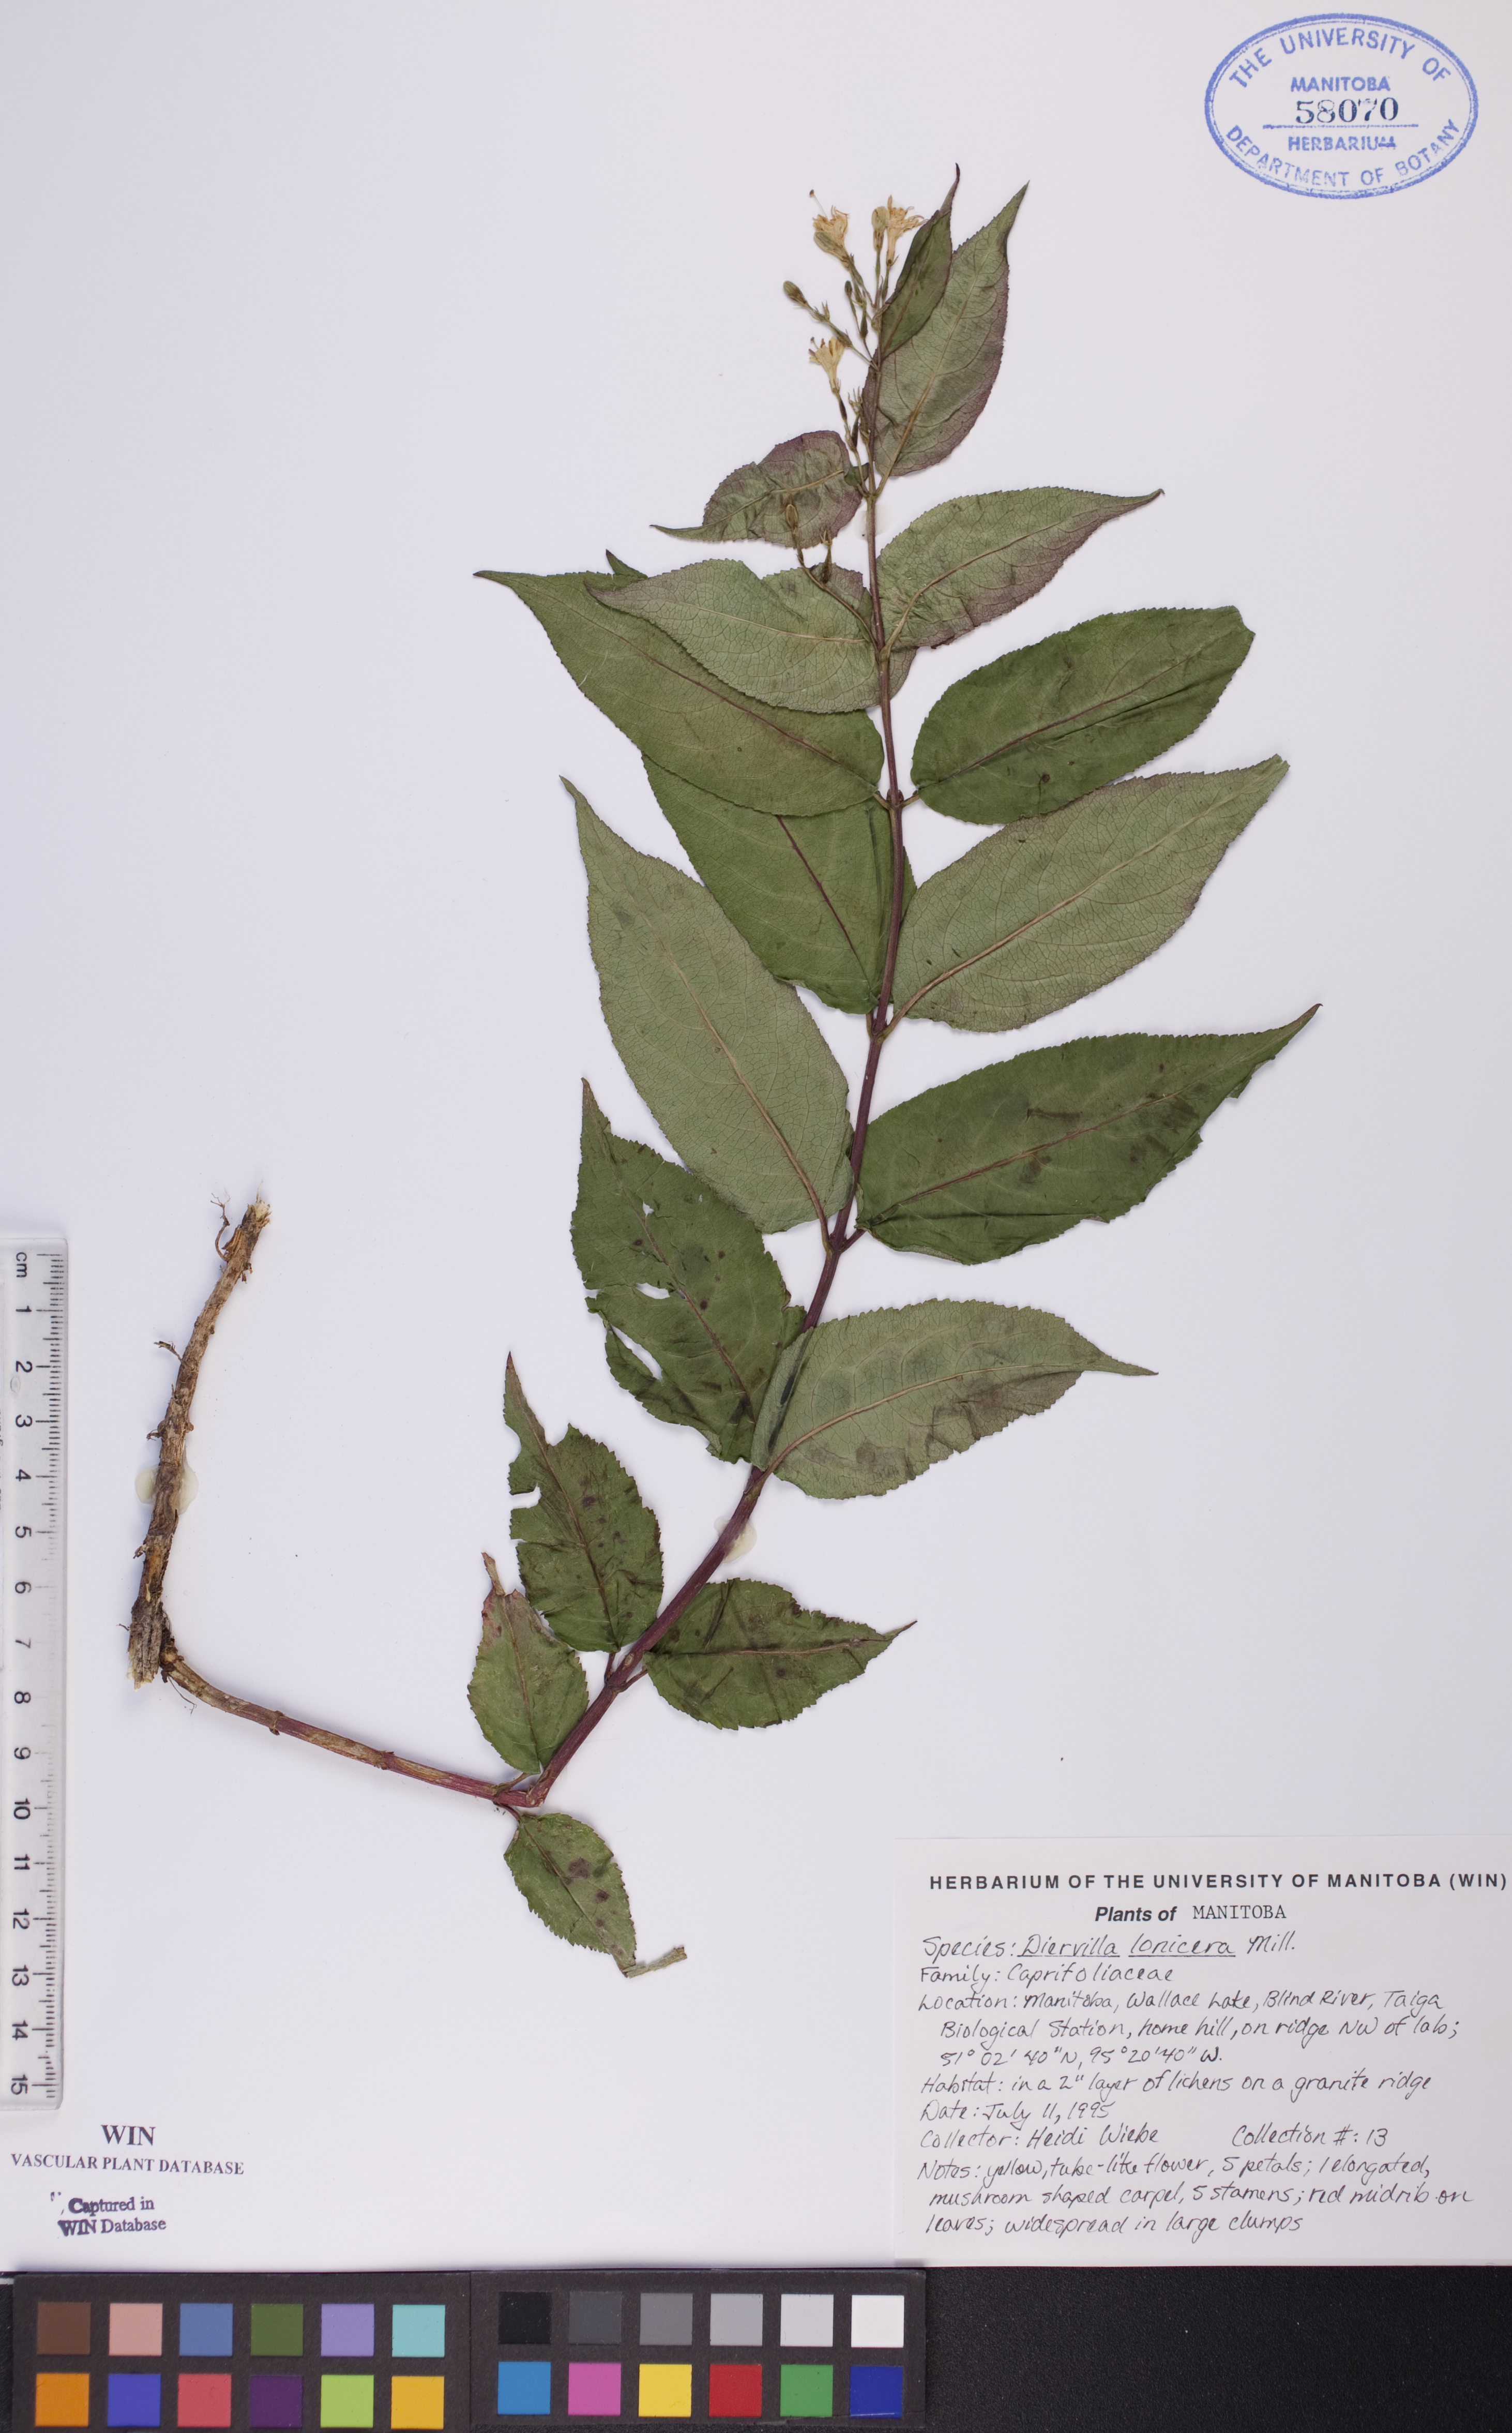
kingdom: Plantae
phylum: Tracheophyta
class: Magnoliopsida
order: Dipsacales
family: Caprifoliaceae
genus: Diervilla
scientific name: Diervilla lonicera
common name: Bush-honeysuckle
